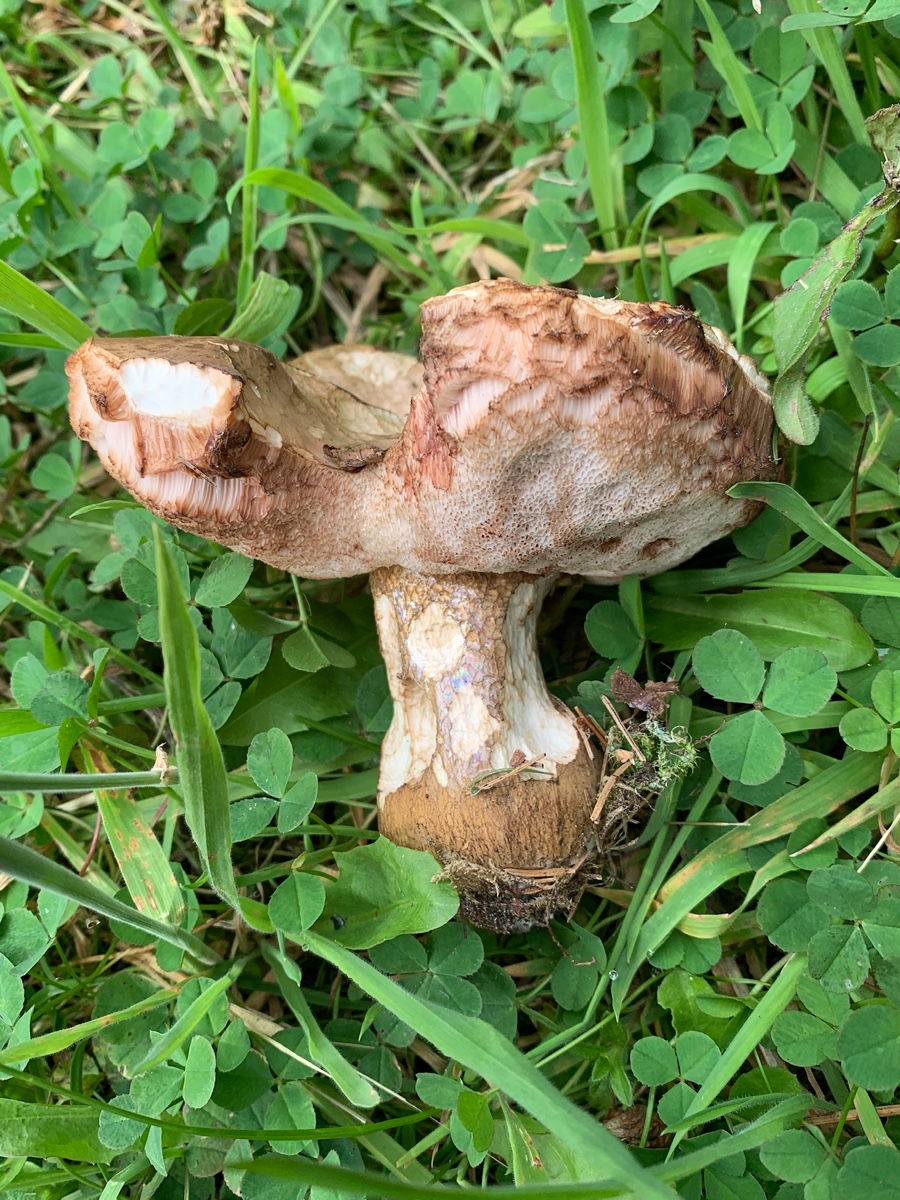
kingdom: Fungi
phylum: Basidiomycota
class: Agaricomycetes
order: Boletales
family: Boletaceae
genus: Tylopilus
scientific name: Tylopilus felleus
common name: galderørhat
